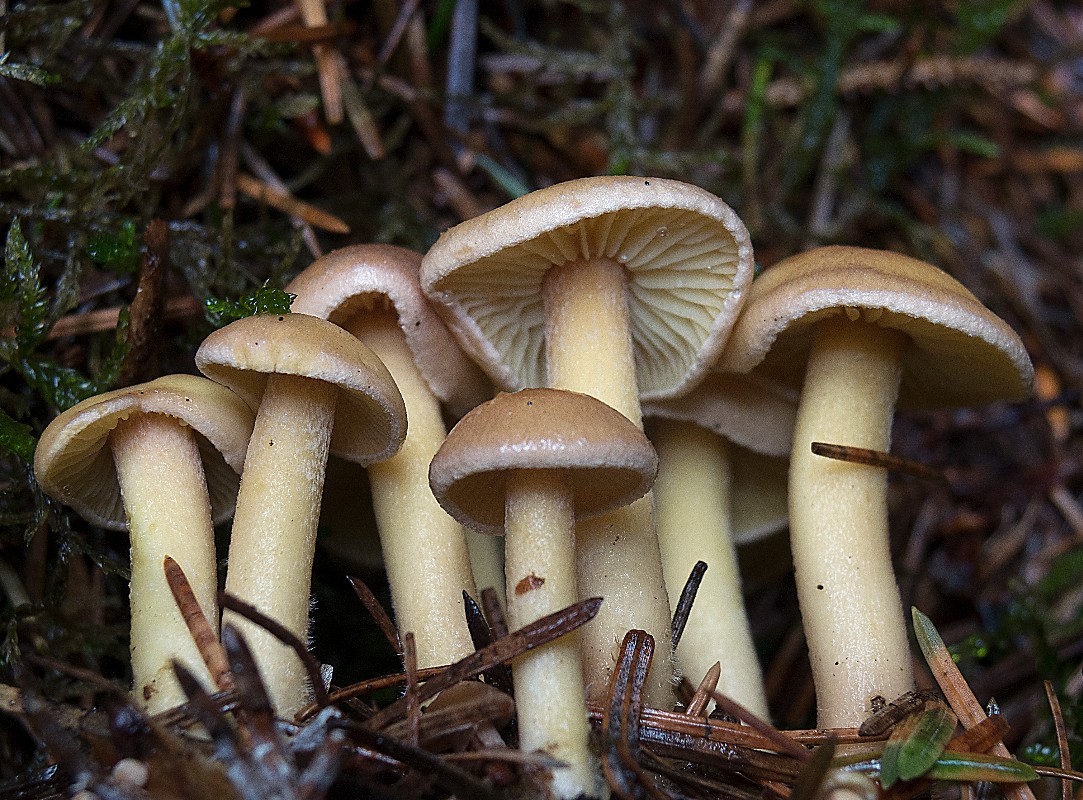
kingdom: Fungi
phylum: Basidiomycota
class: Agaricomycetes
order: Agaricales
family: Omphalotaceae
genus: Collybiopsis
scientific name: Collybiopsis peronata
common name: bestøvlet fladhat
